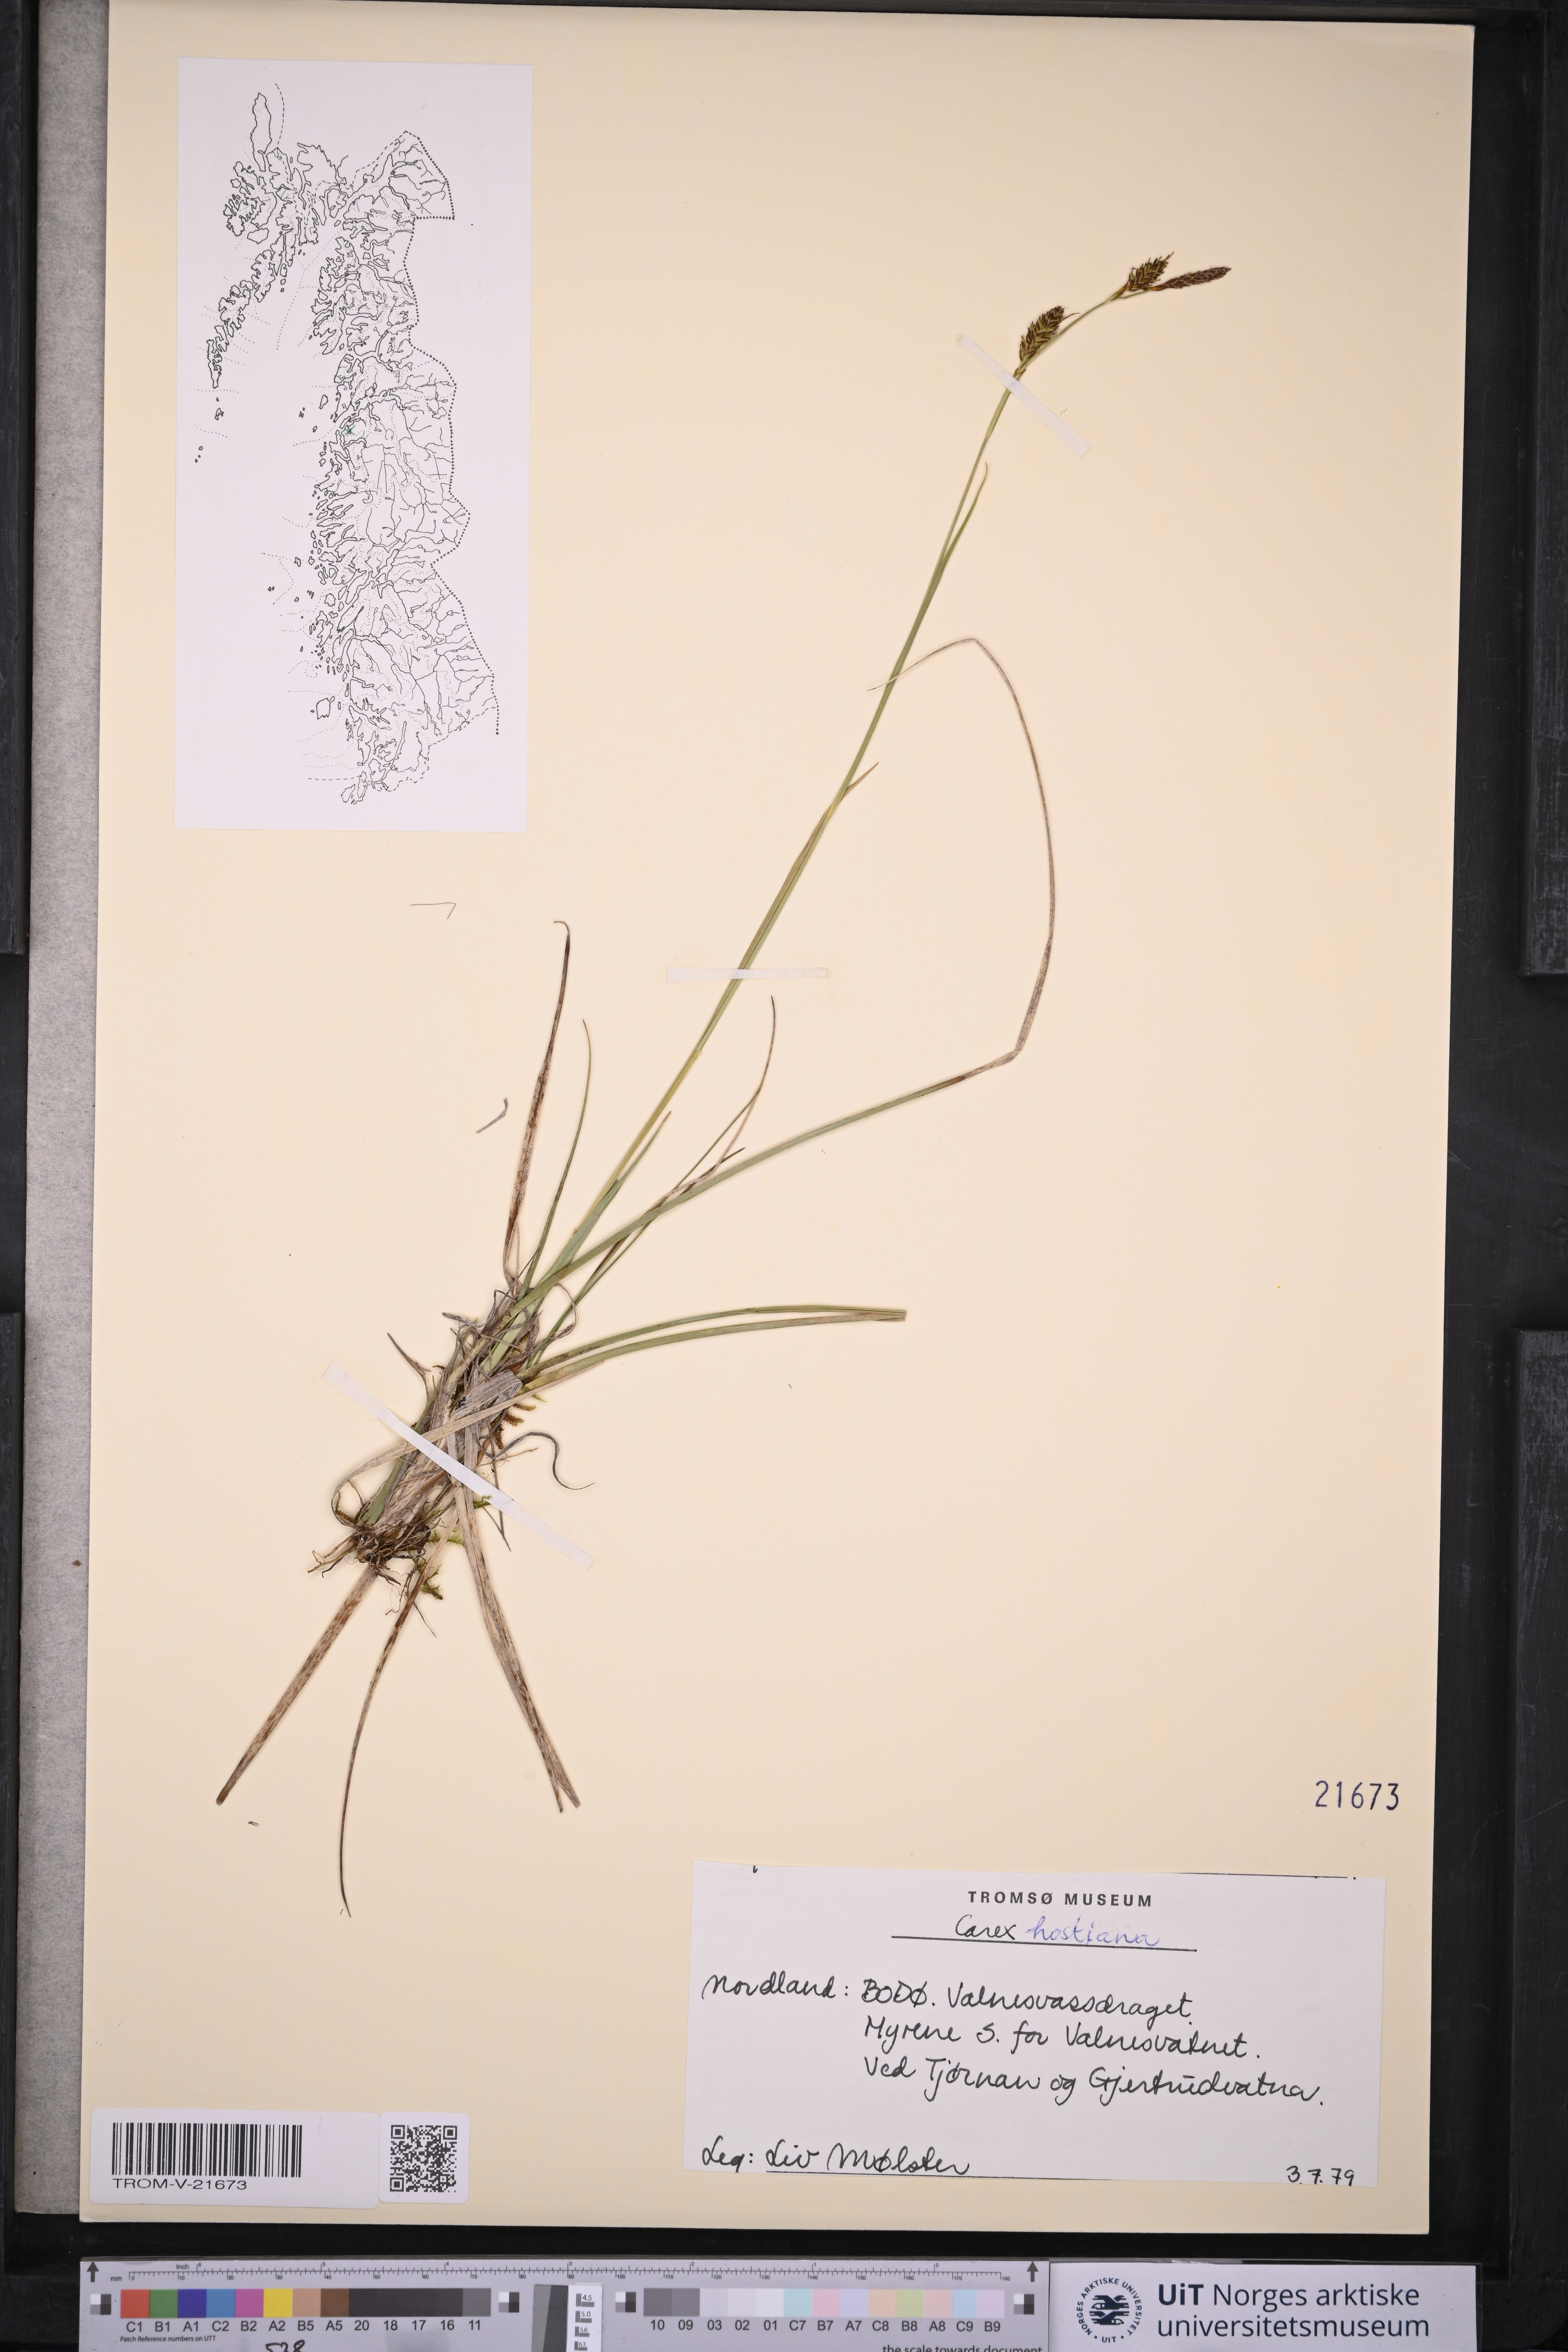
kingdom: Plantae
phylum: Tracheophyta
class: Liliopsida
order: Poales
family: Cyperaceae
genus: Carex
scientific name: Carex hostiana
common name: Tawny sedge
